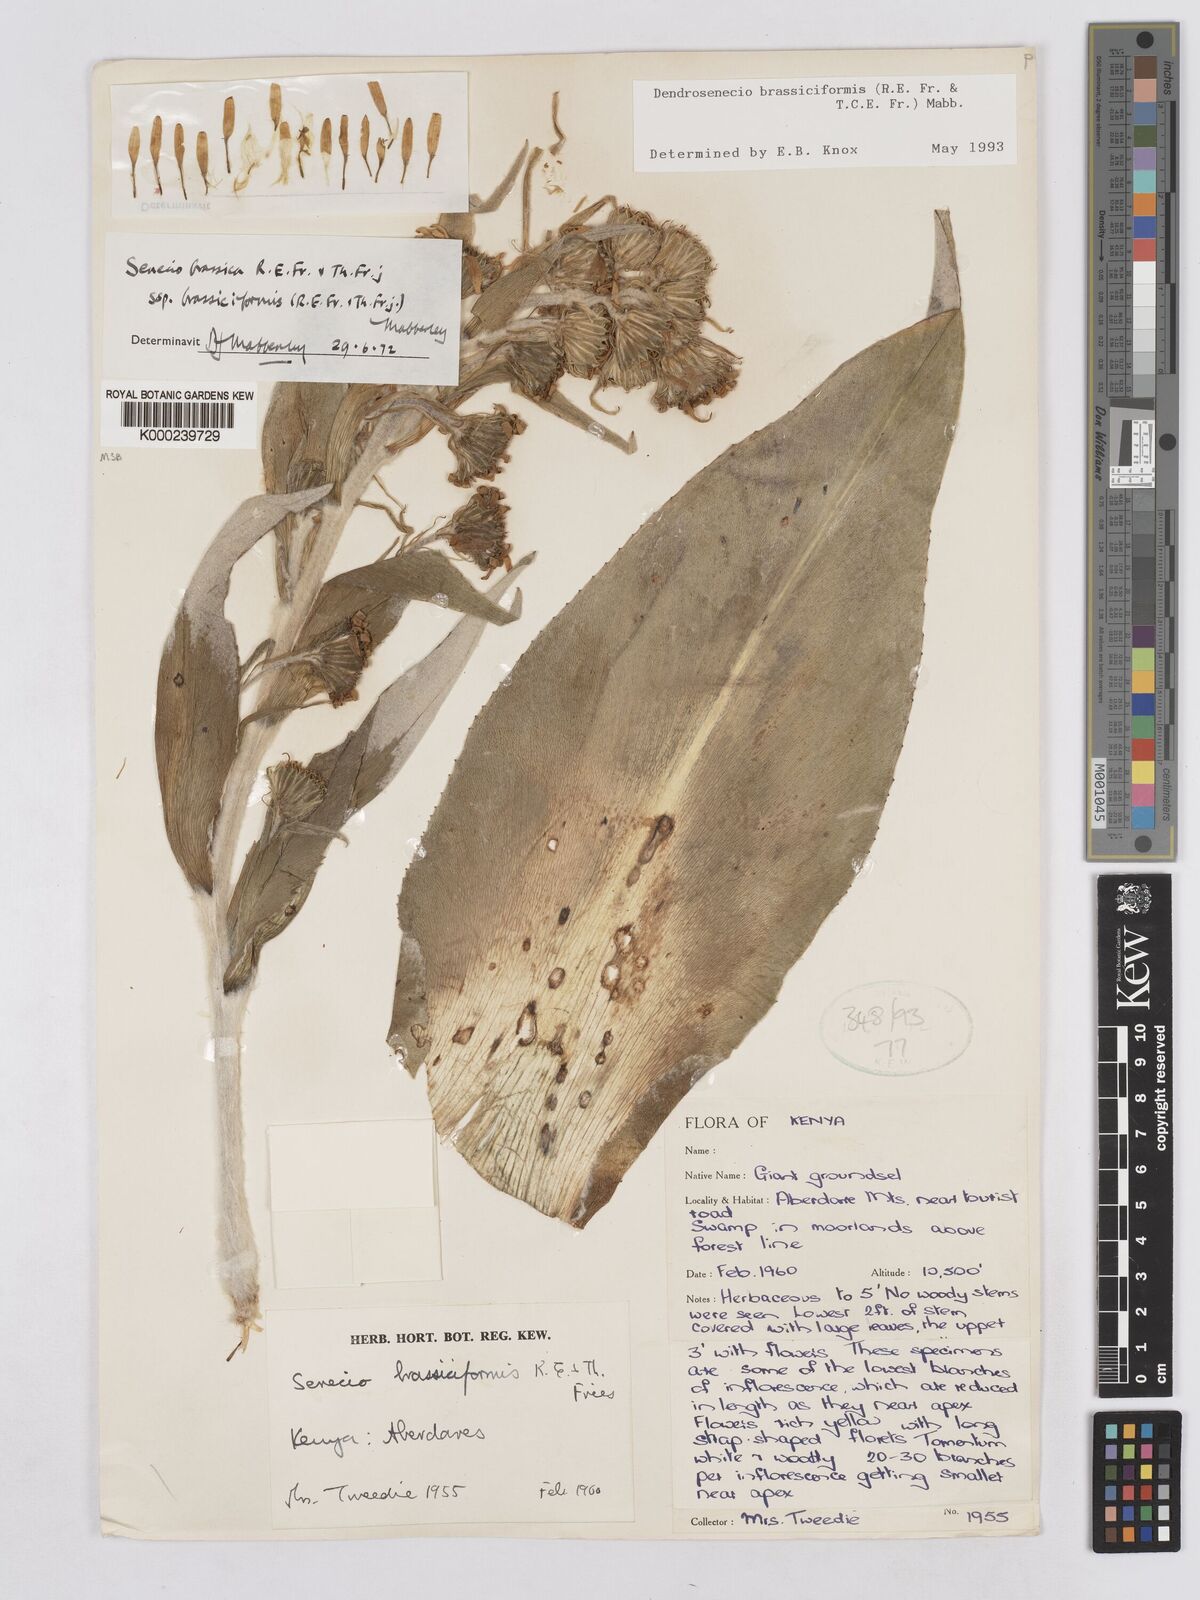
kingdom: Plantae
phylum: Tracheophyta
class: Magnoliopsida
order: Asterales
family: Asteraceae
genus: Dendrosenecio
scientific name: Dendrosenecio brassiciformis
